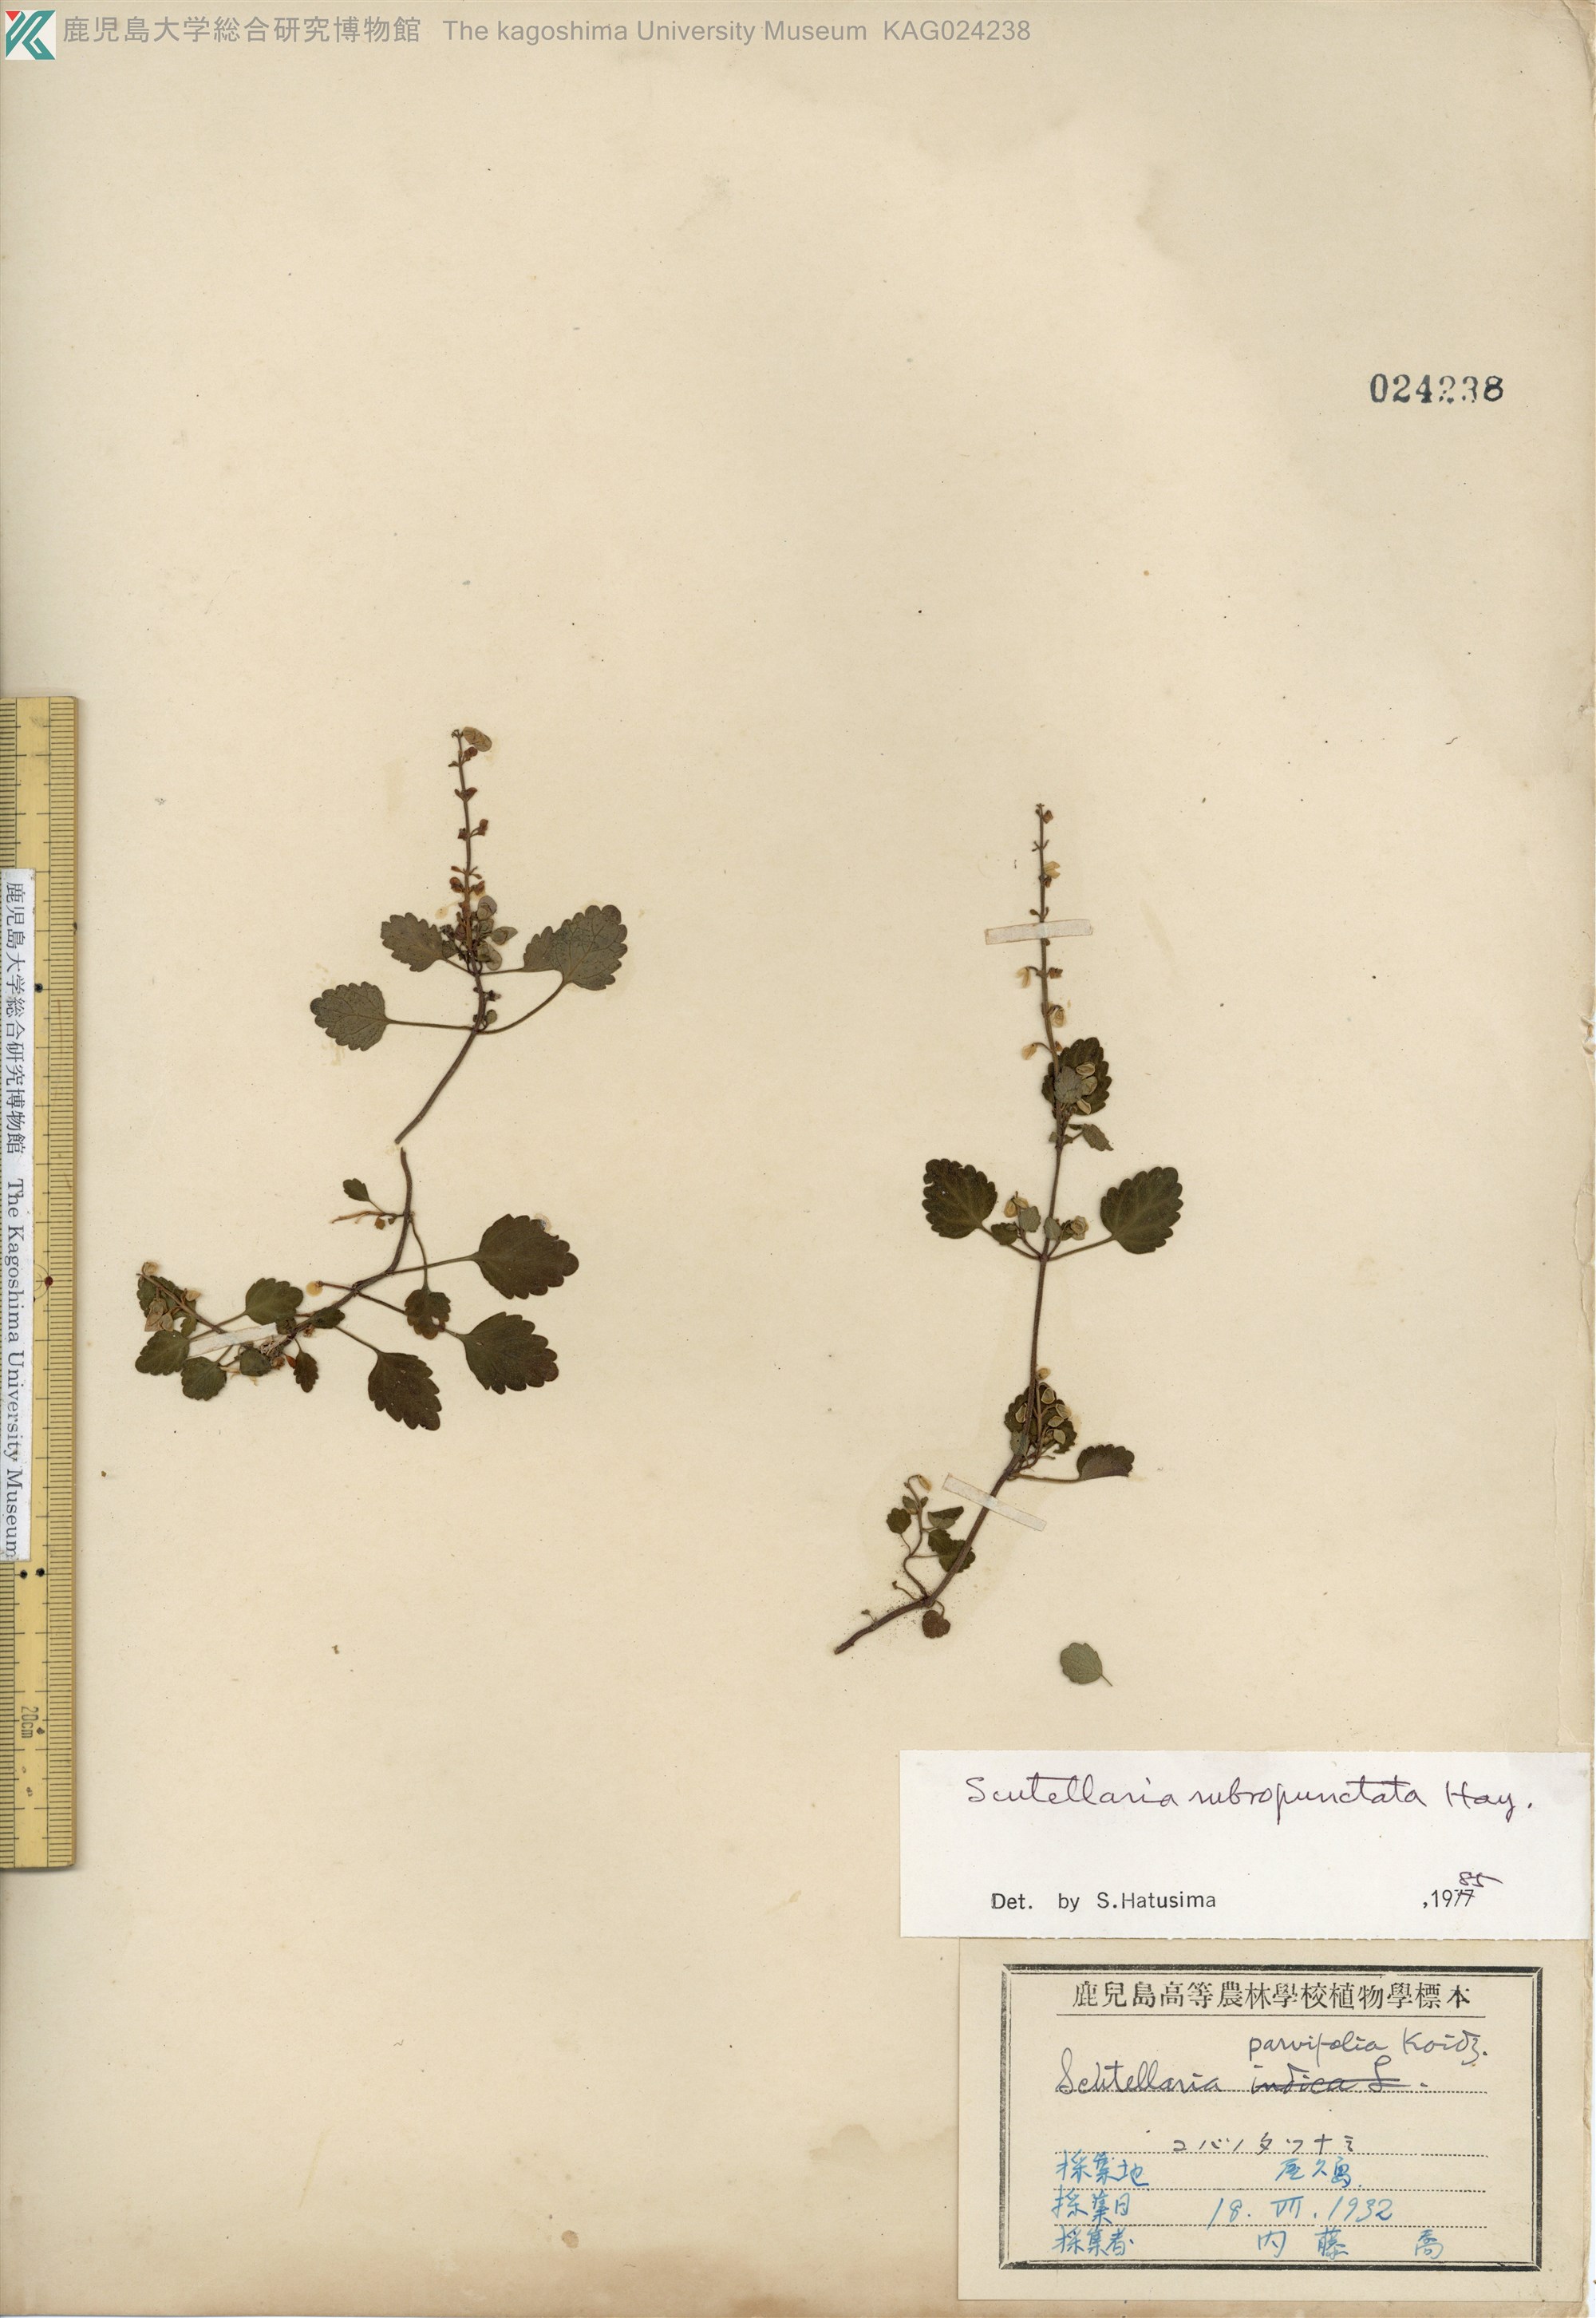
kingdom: Plantae
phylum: Tracheophyta
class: Magnoliopsida
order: Lamiales
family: Lamiaceae
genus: Scutellaria
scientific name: Scutellaria rubropunctata
